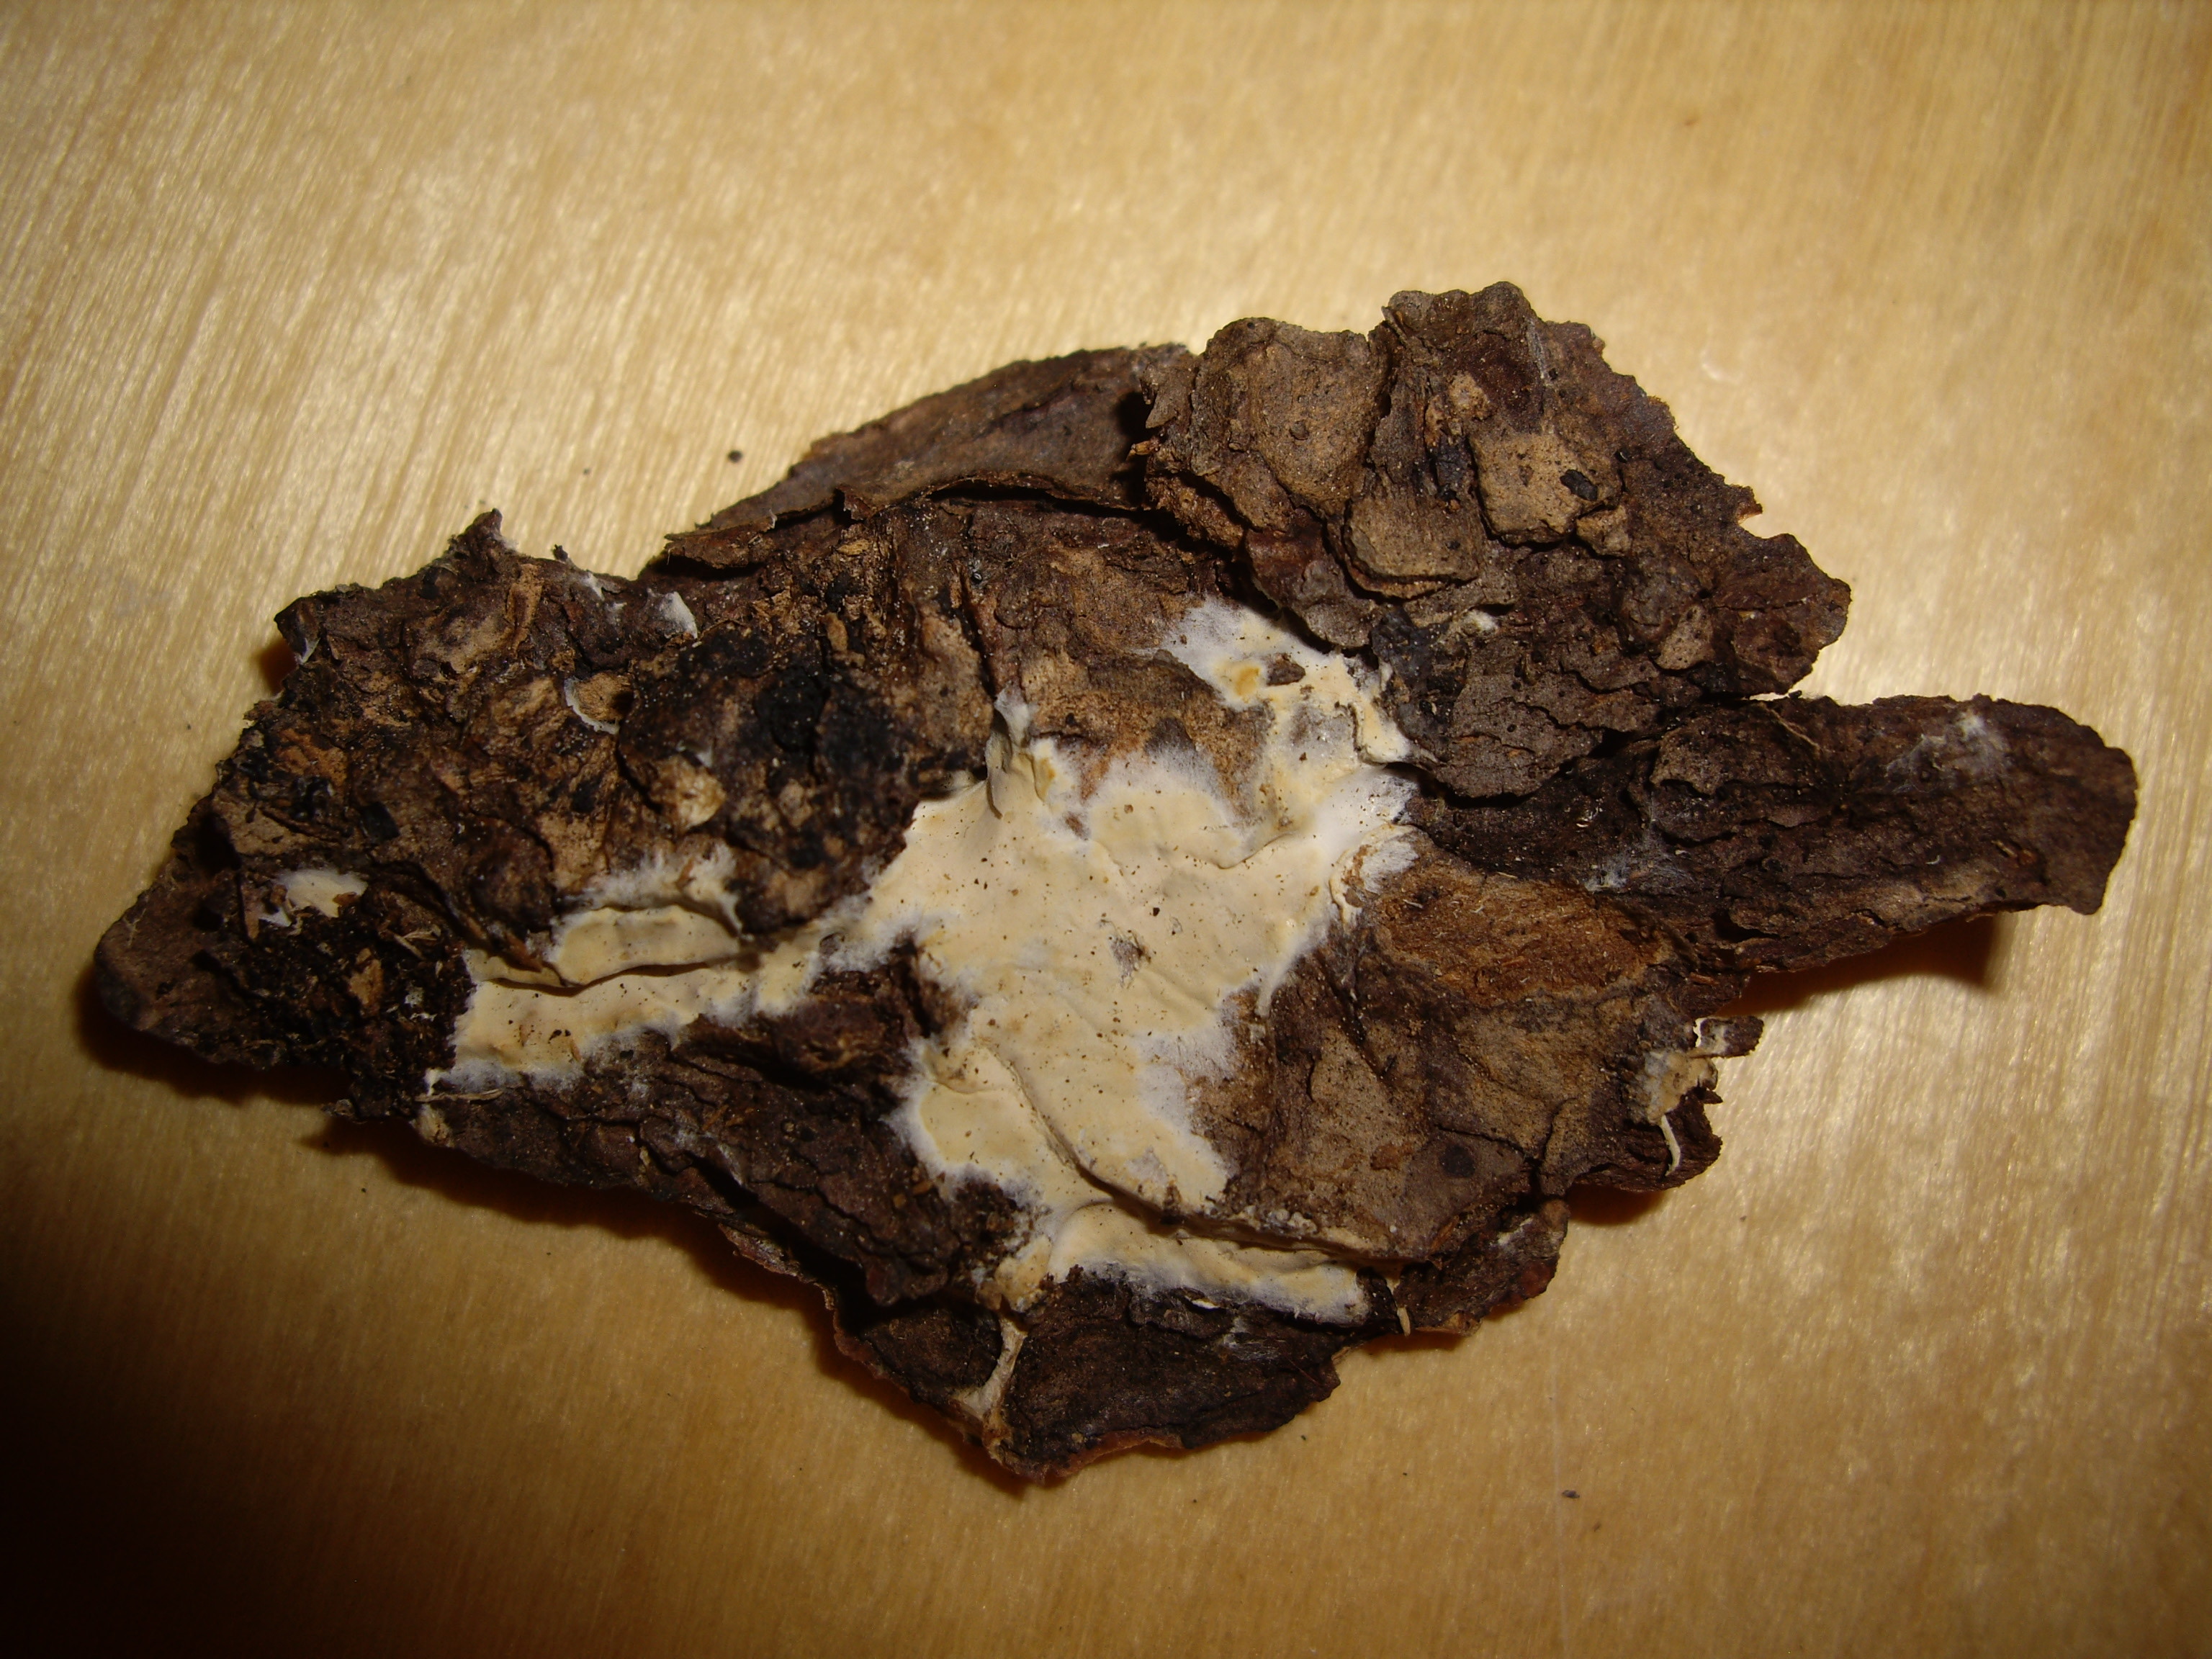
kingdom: Fungi
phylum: Basidiomycota
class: Agaricomycetes
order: Polyporales
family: Irpicaceae
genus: Crystallicutis
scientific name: Crystallicutis serpens
